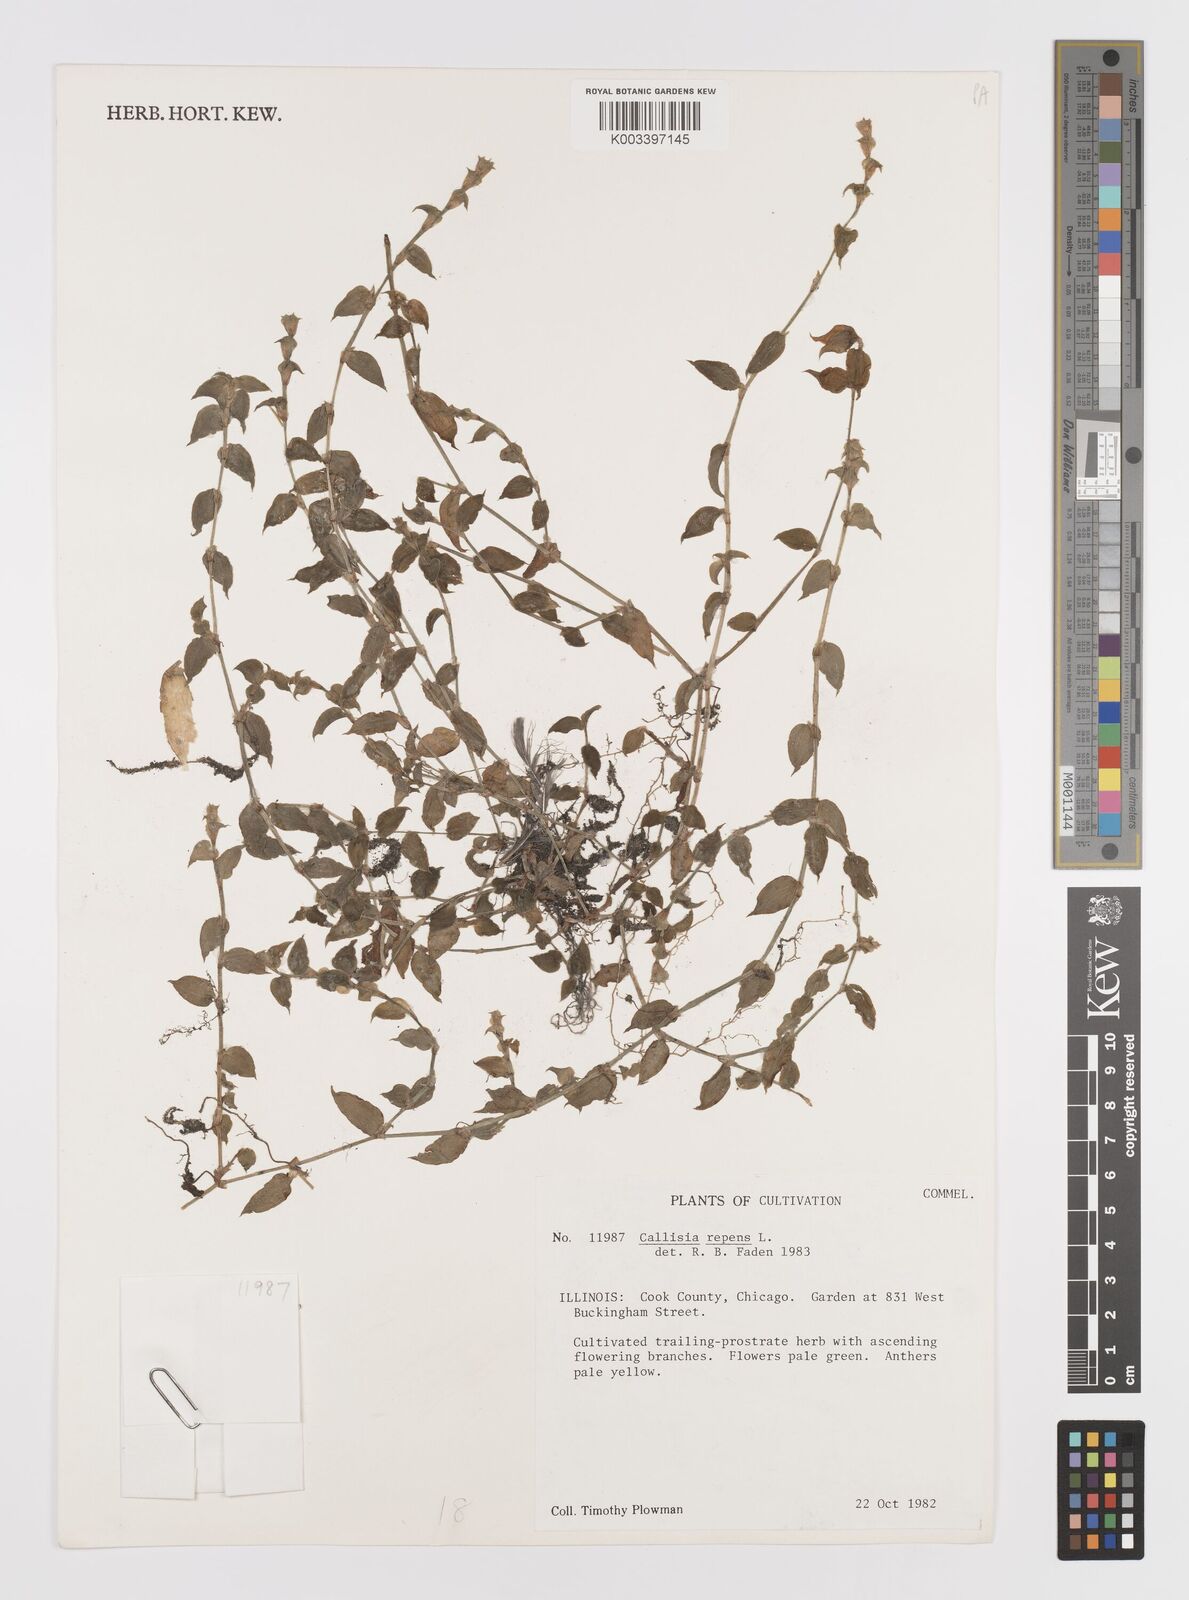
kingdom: Plantae
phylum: Tracheophyta
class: Liliopsida
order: Commelinales
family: Commelinaceae
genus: Callisia
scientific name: Callisia repens
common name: Creeping inchplant
